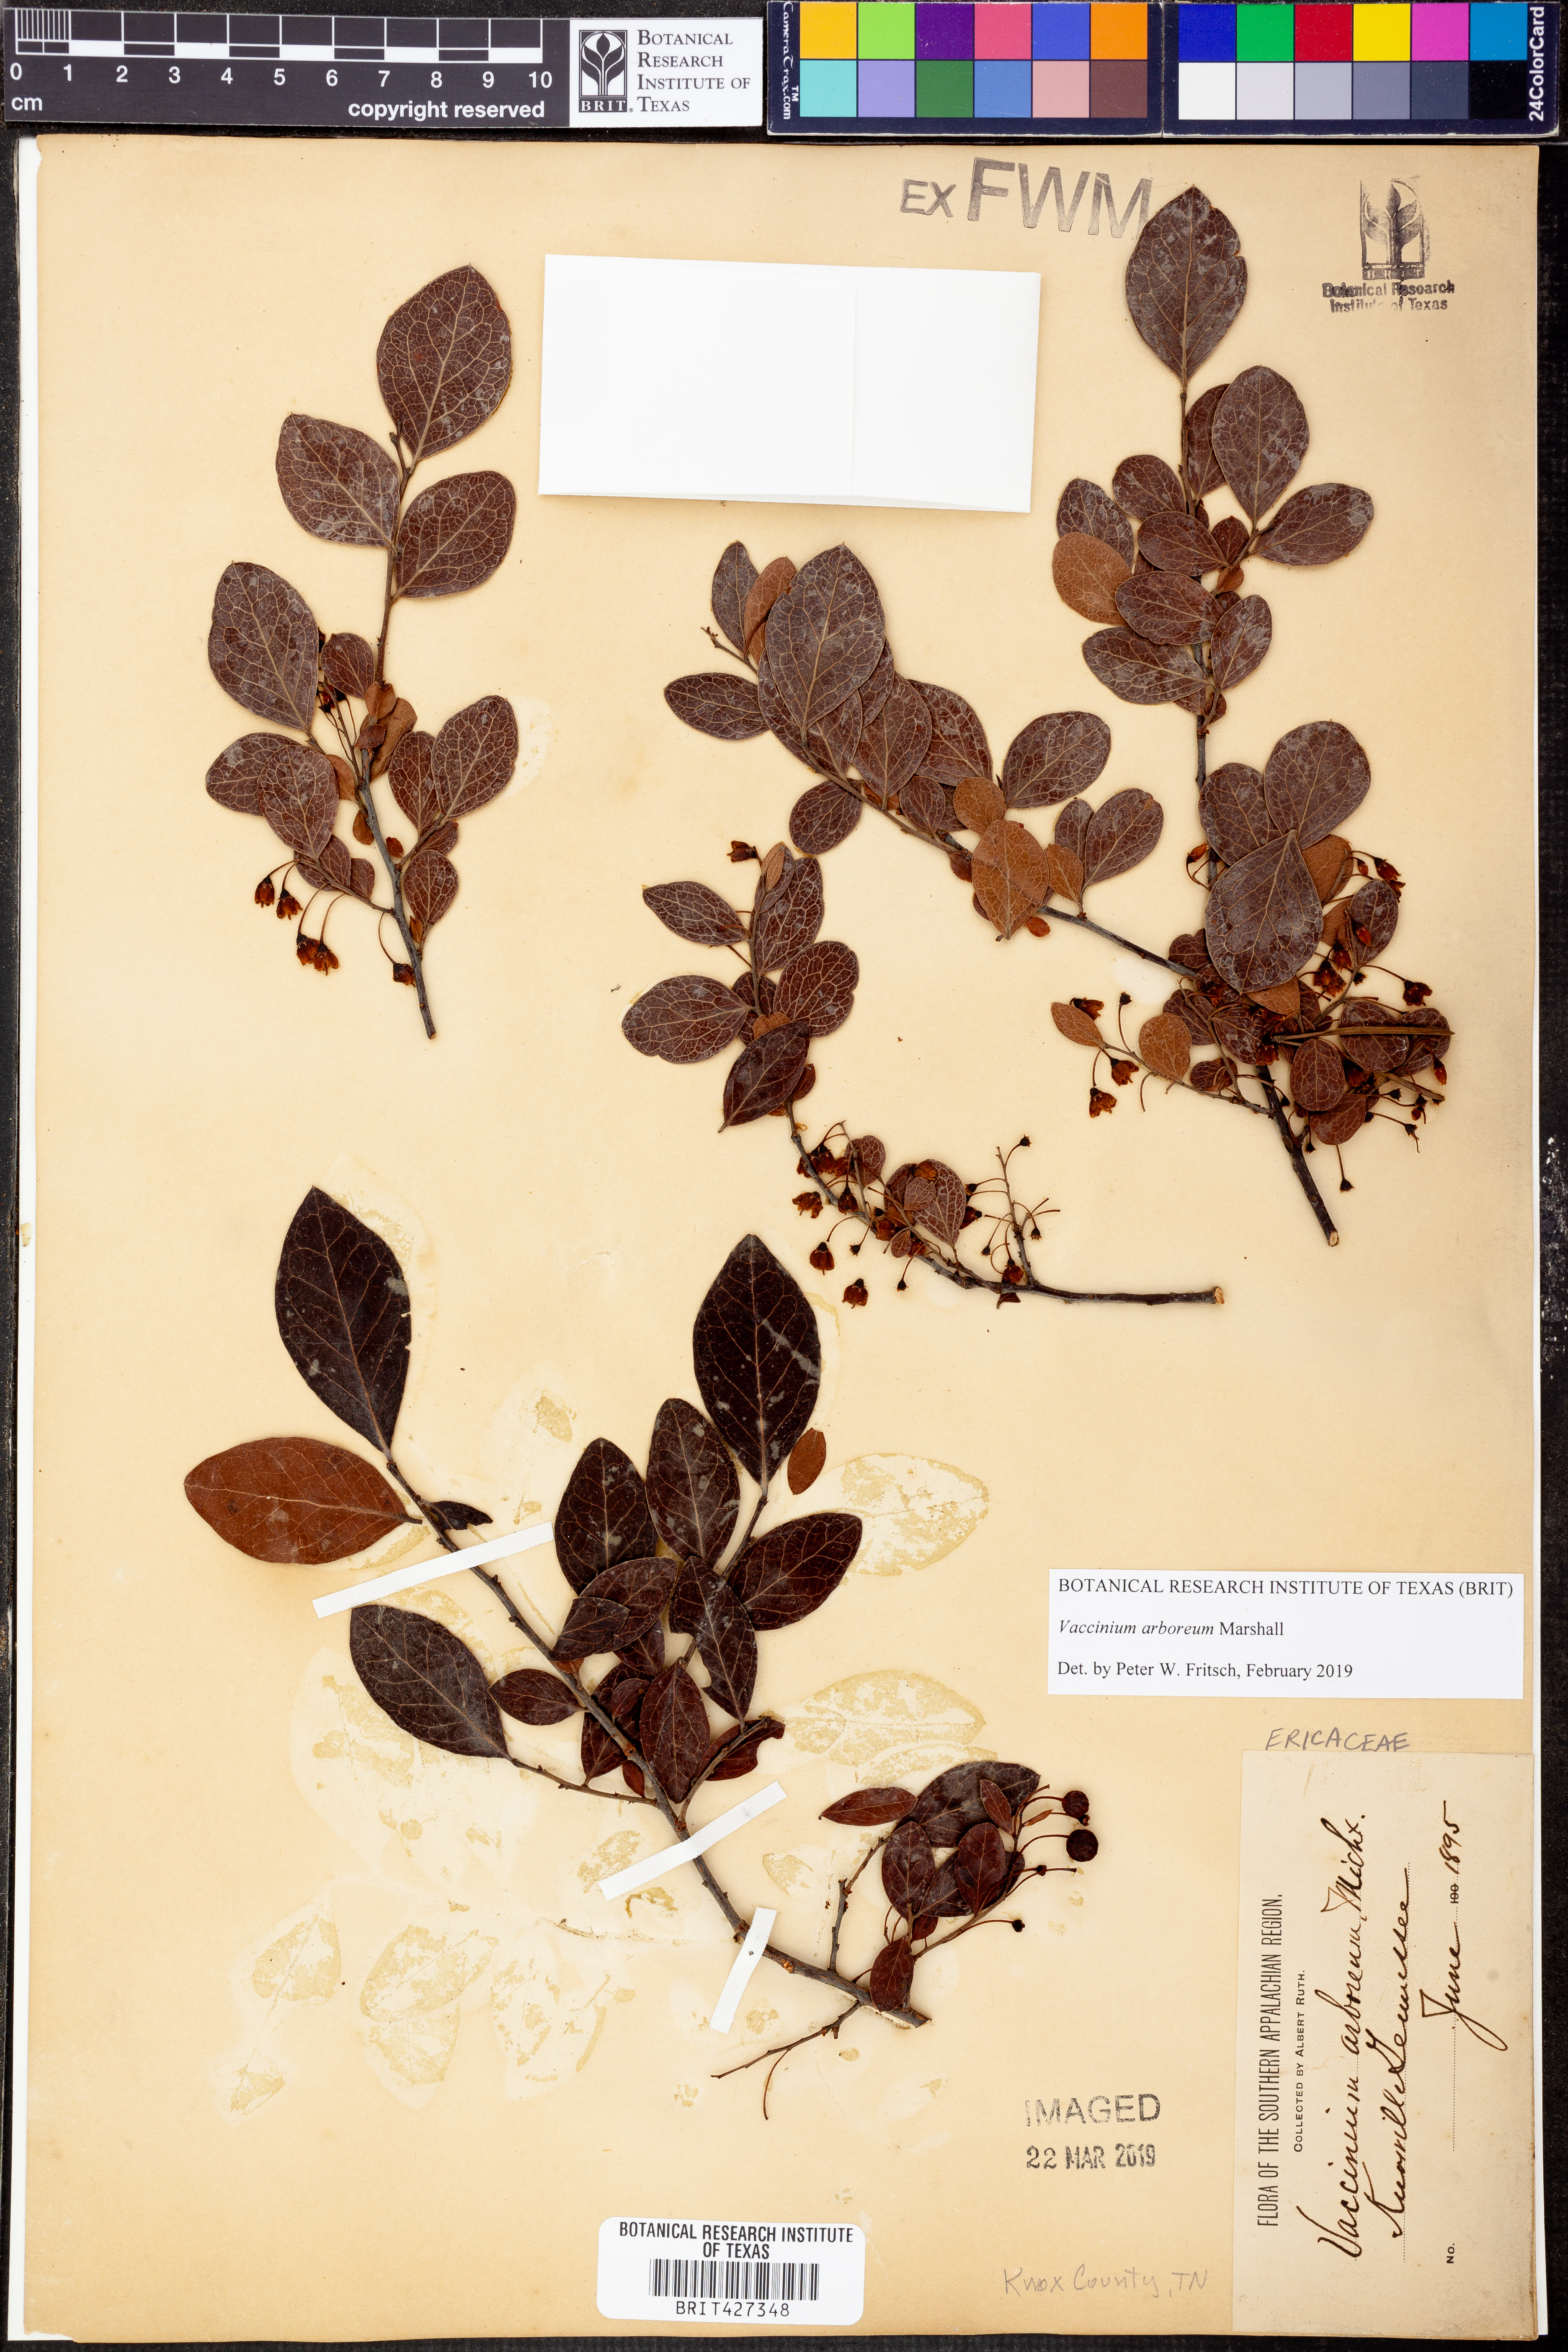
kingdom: Plantae
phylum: Tracheophyta
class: Magnoliopsida
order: Ericales
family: Ericaceae
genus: Vaccinium
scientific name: Vaccinium arboreum
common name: Farkleberry
